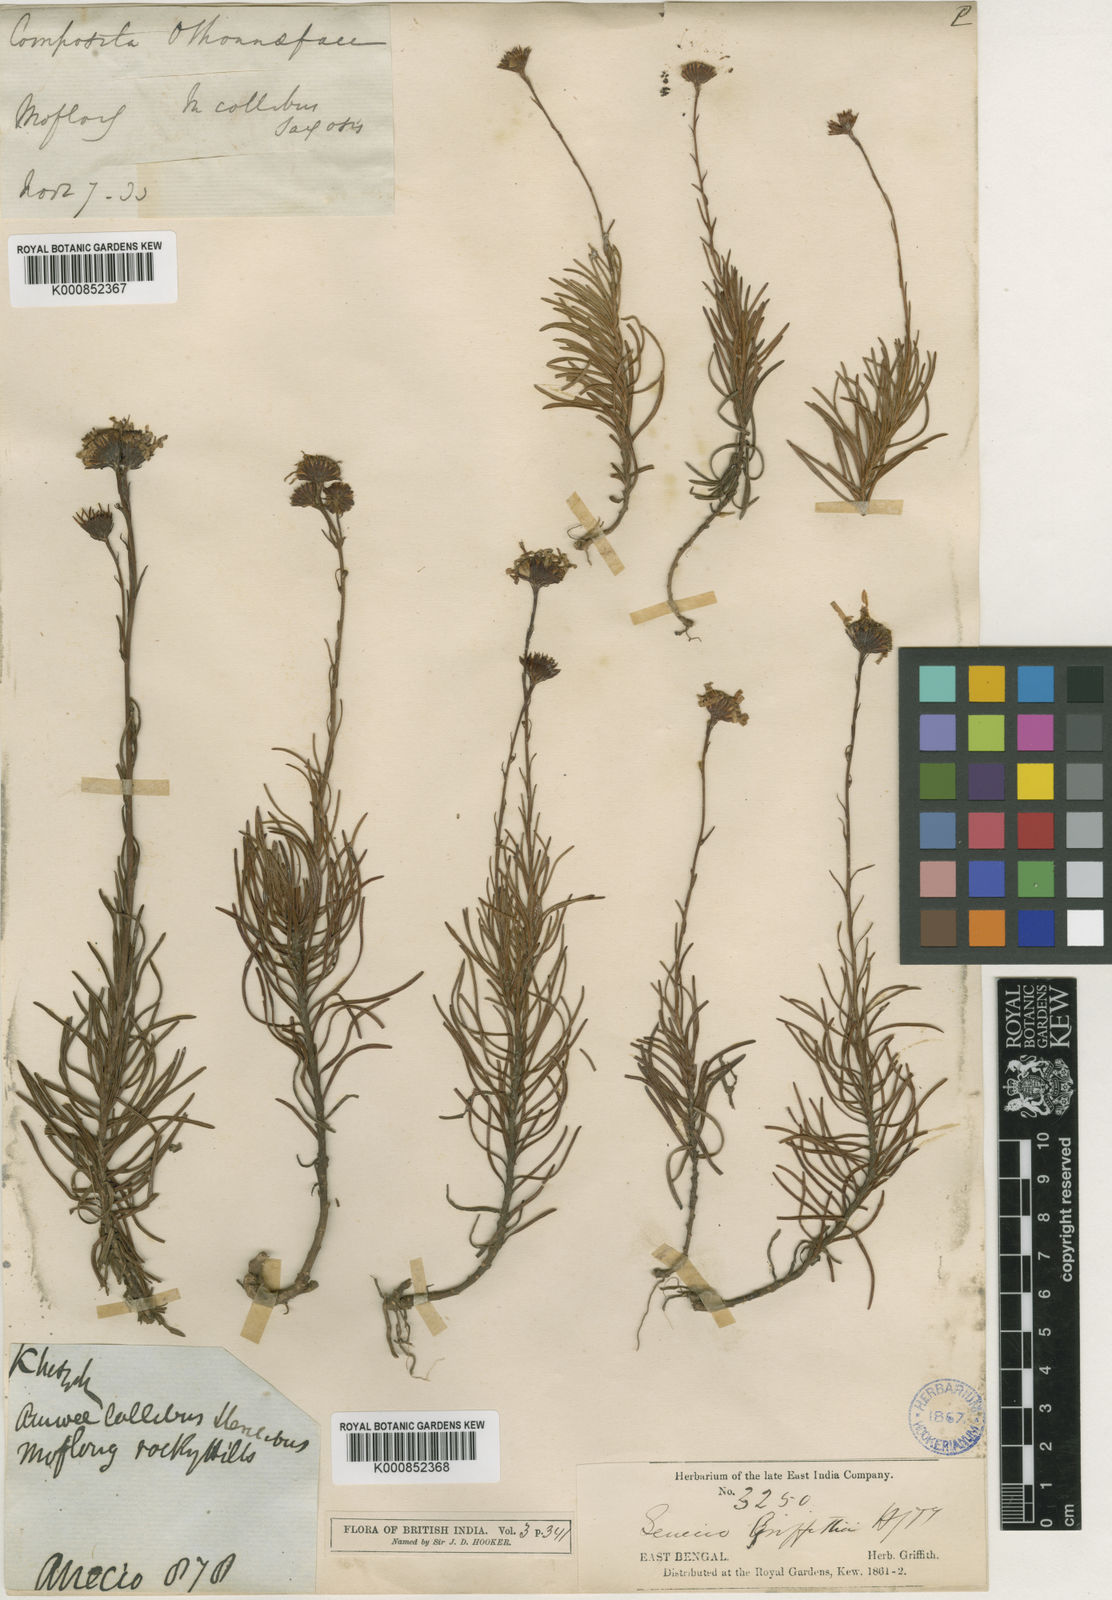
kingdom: Plantae
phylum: Tracheophyta
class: Magnoliopsida
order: Asterales
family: Asteraceae
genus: Senecio
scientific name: Senecio griffithii
